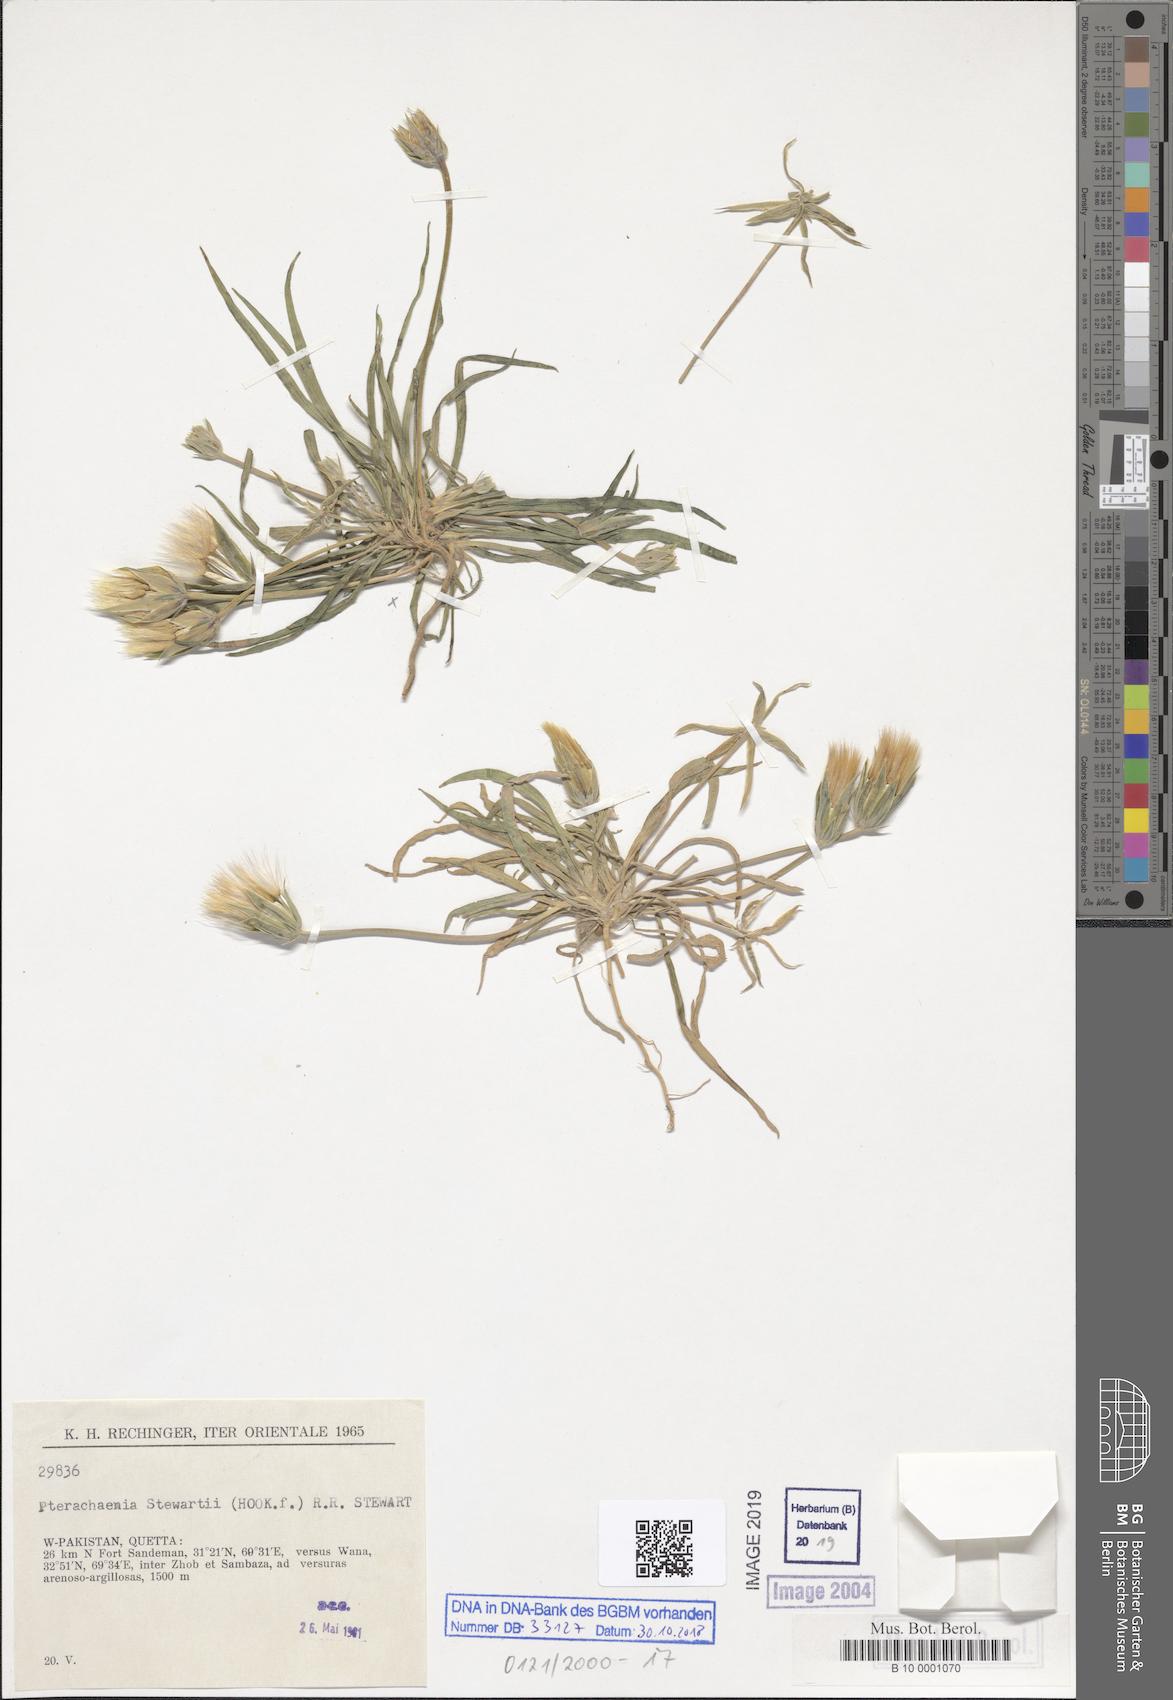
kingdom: Plantae
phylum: Tracheophyta
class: Magnoliopsida
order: Asterales
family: Asteraceae
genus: Pterachaenia
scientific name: Pterachaenia stewartii
